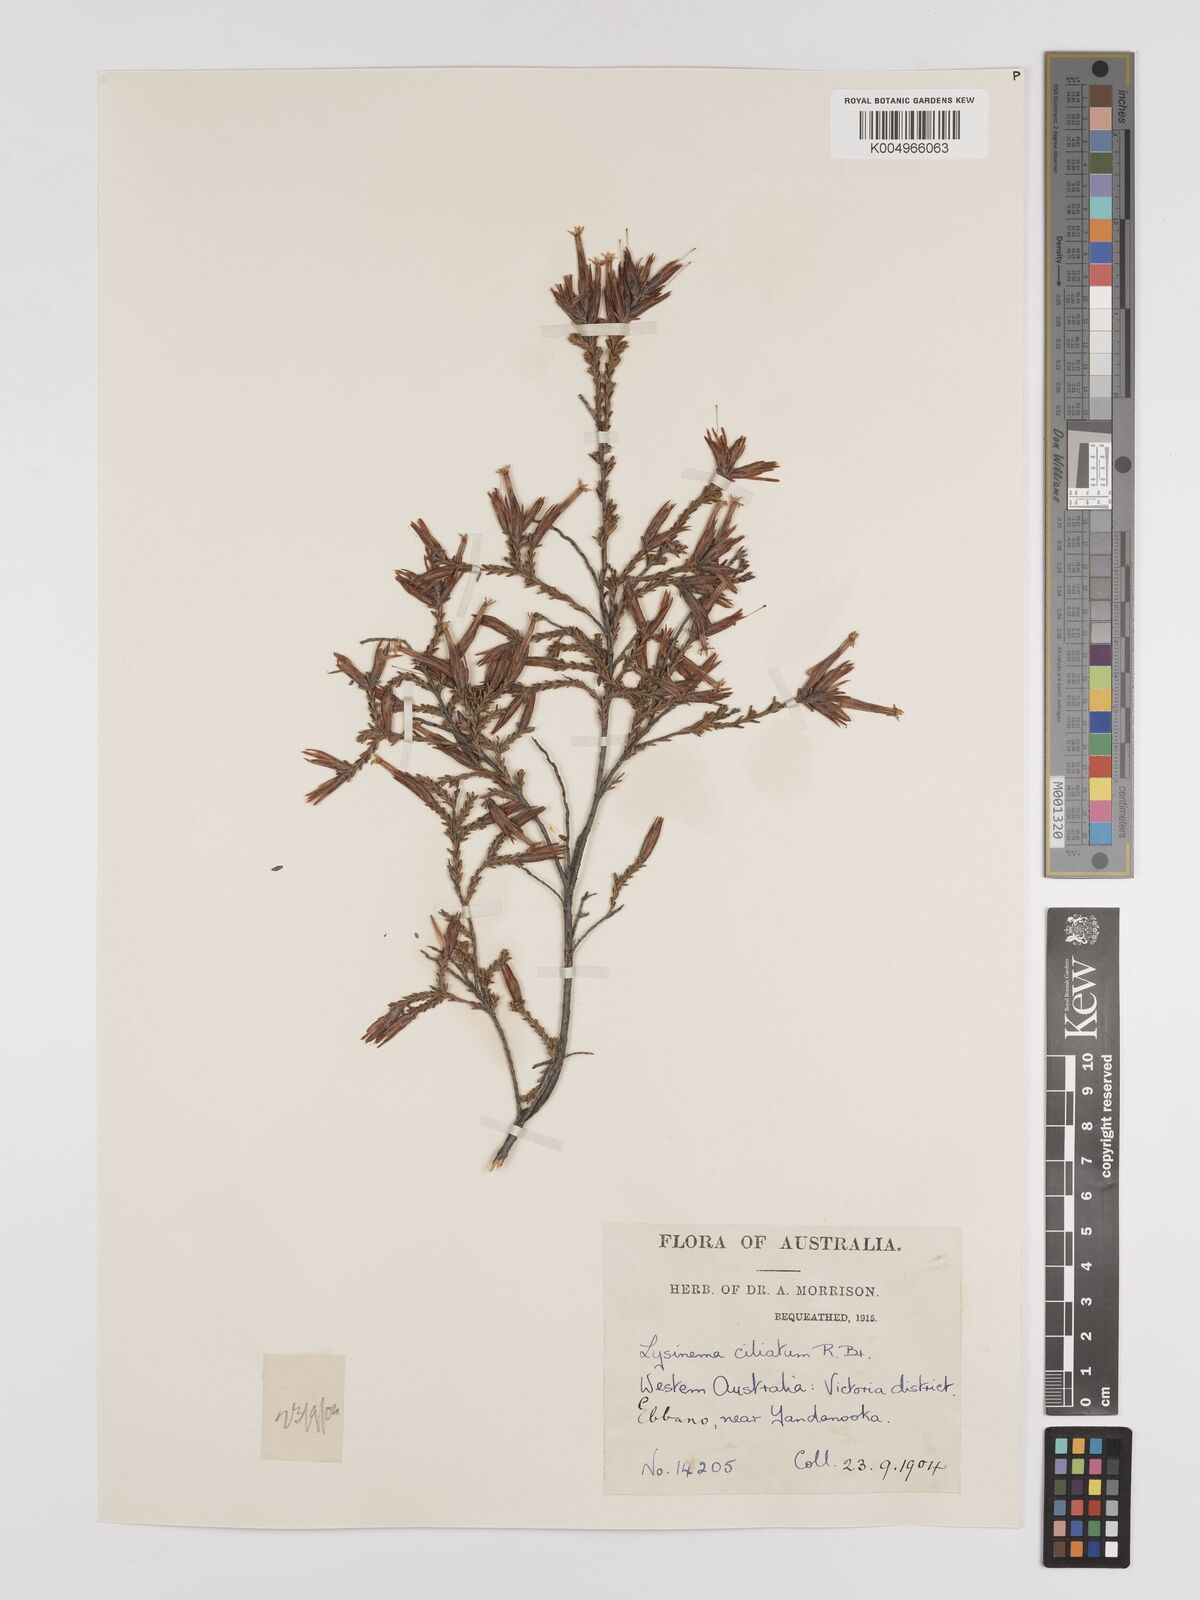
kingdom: Plantae
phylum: Tracheophyta
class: Magnoliopsida
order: Ericales
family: Ericaceae
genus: Lysinema
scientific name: Lysinema ciliatum
